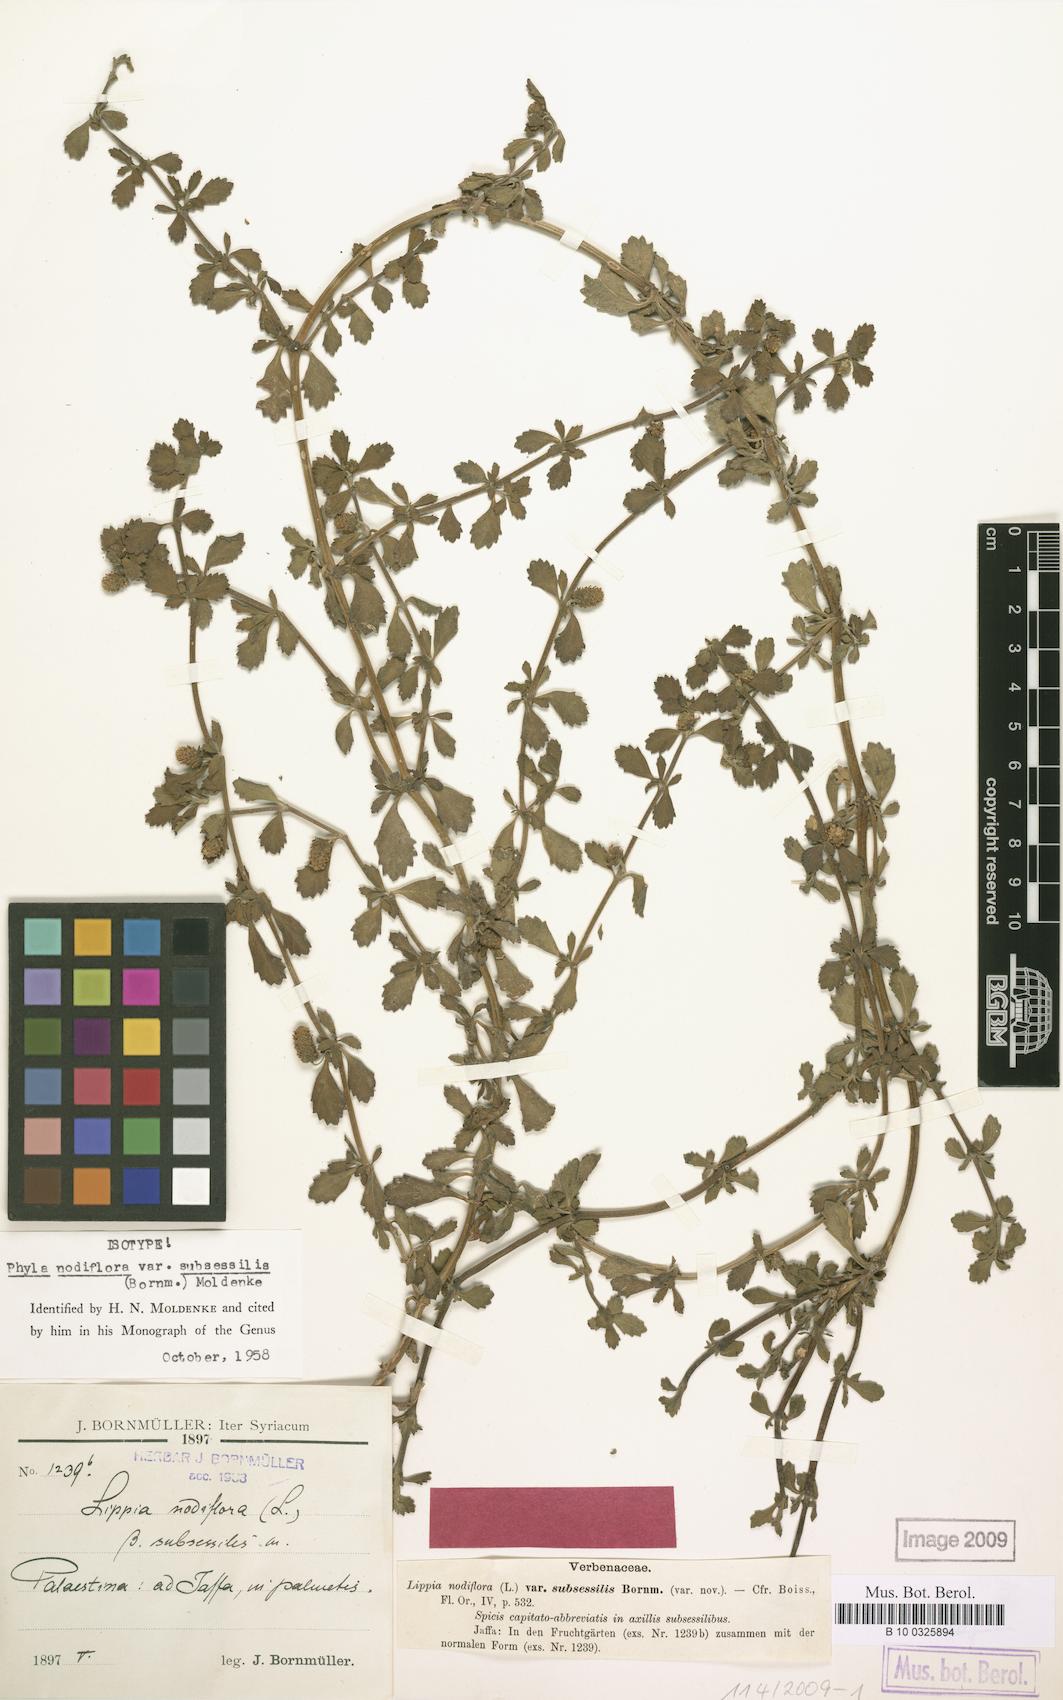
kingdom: Plantae
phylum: Tracheophyta
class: Magnoliopsida
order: Lamiales
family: Verbenaceae
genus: Phyla
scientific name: Phyla nodiflora
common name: Frogfruit
